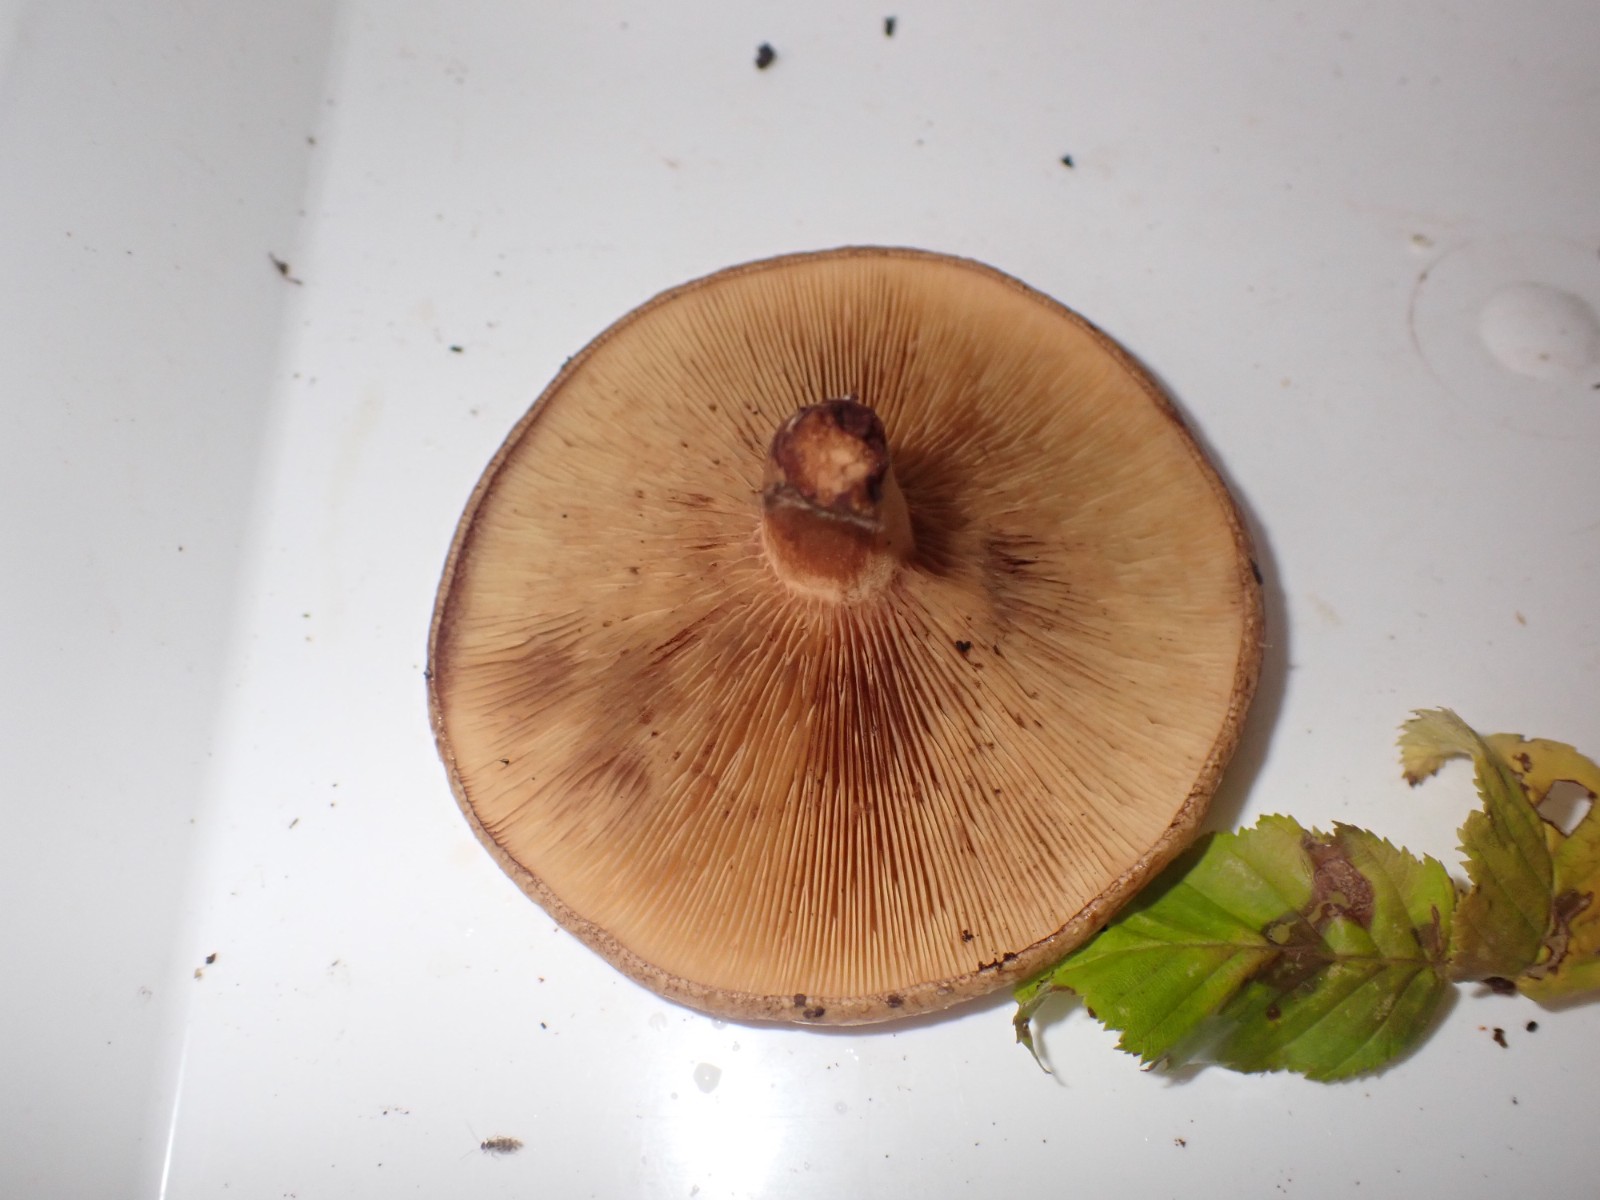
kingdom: Fungi
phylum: Basidiomycota
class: Agaricomycetes
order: Boletales
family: Paxillaceae
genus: Paxillus
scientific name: Paxillus
